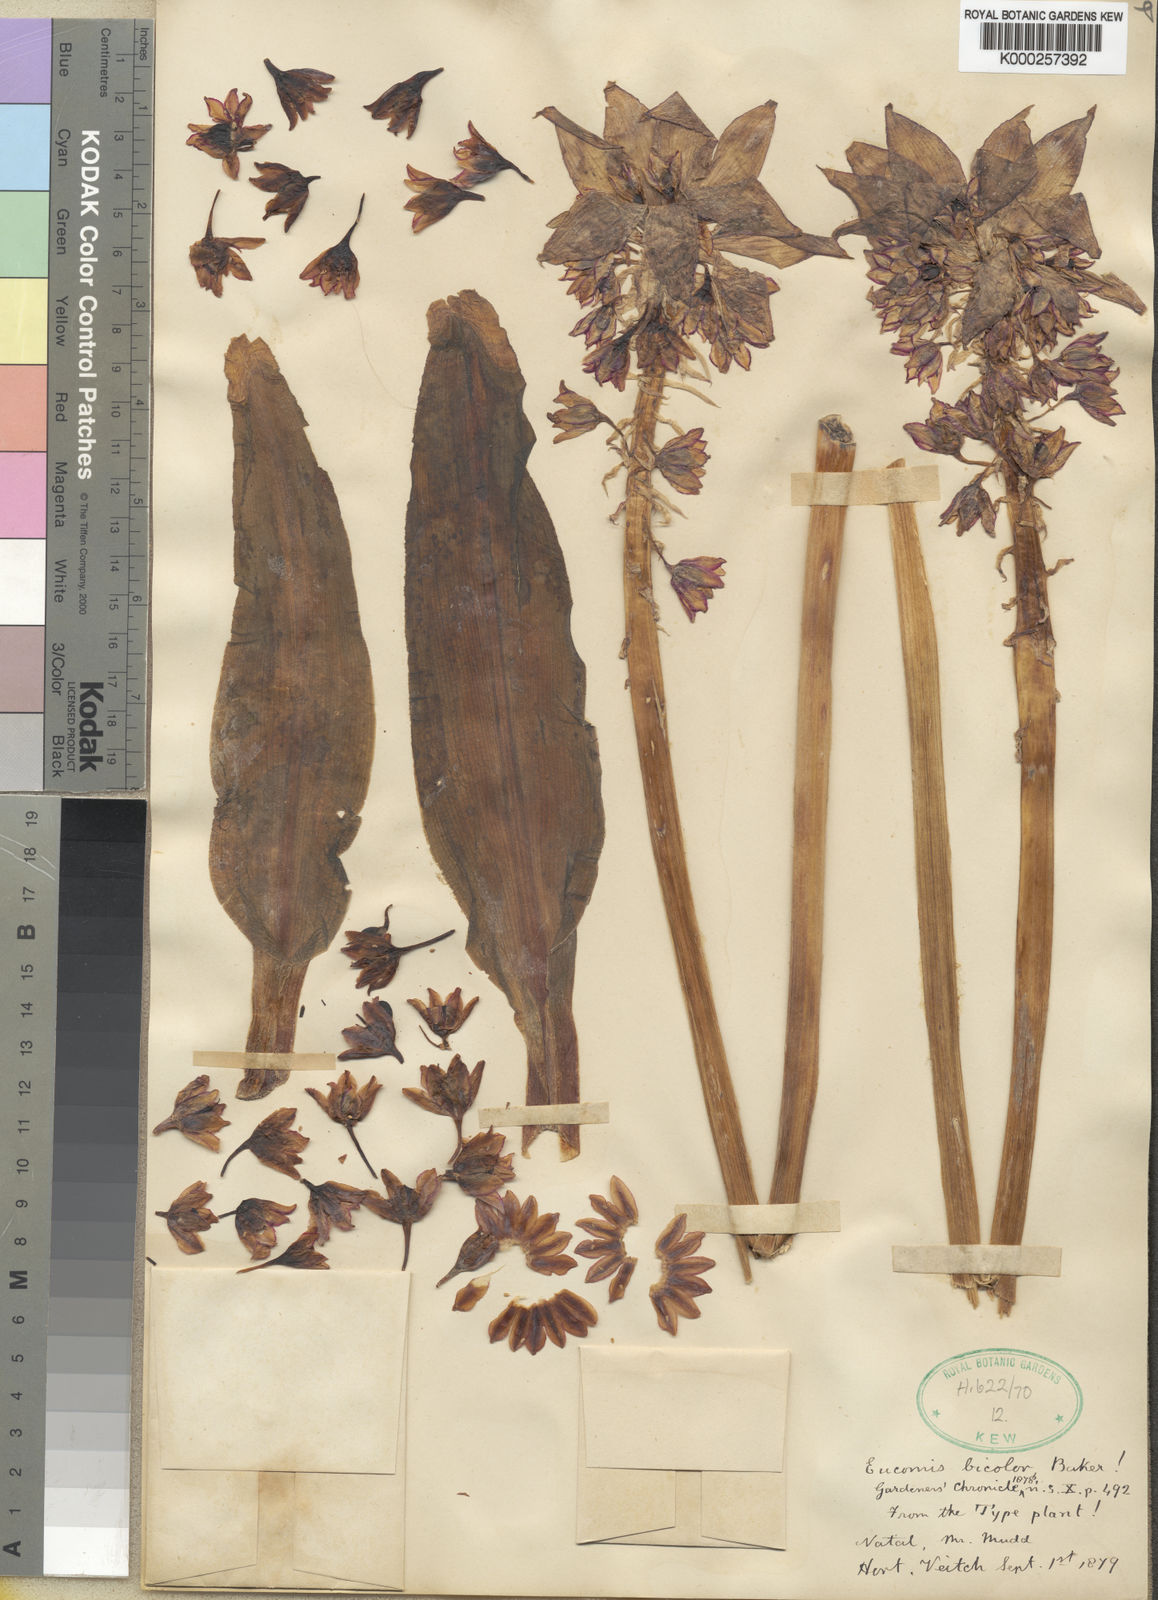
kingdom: Plantae
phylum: Tracheophyta
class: Liliopsida
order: Asparagales
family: Asparagaceae
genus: Eucomis
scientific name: Eucomis bicolor
